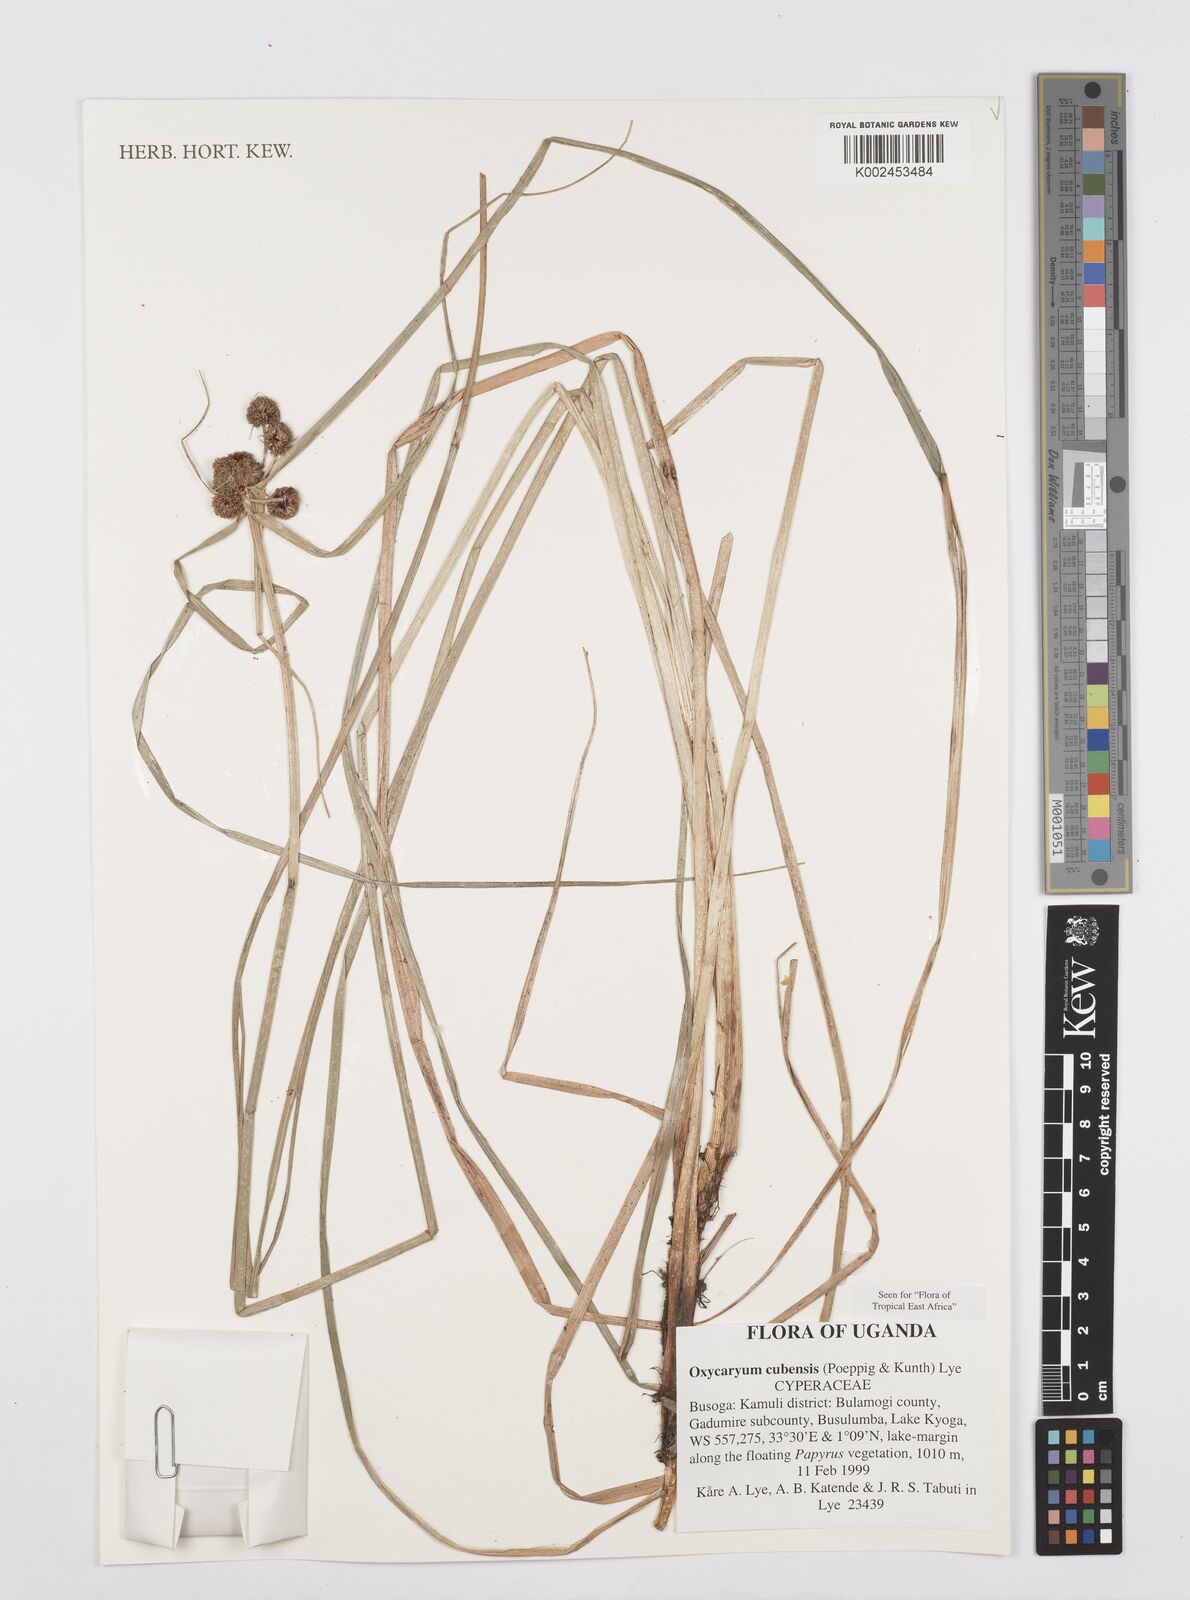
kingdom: Plantae
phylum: Tracheophyta
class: Liliopsida
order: Poales
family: Cyperaceae
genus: Cyperus
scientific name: Cyperus elegans
